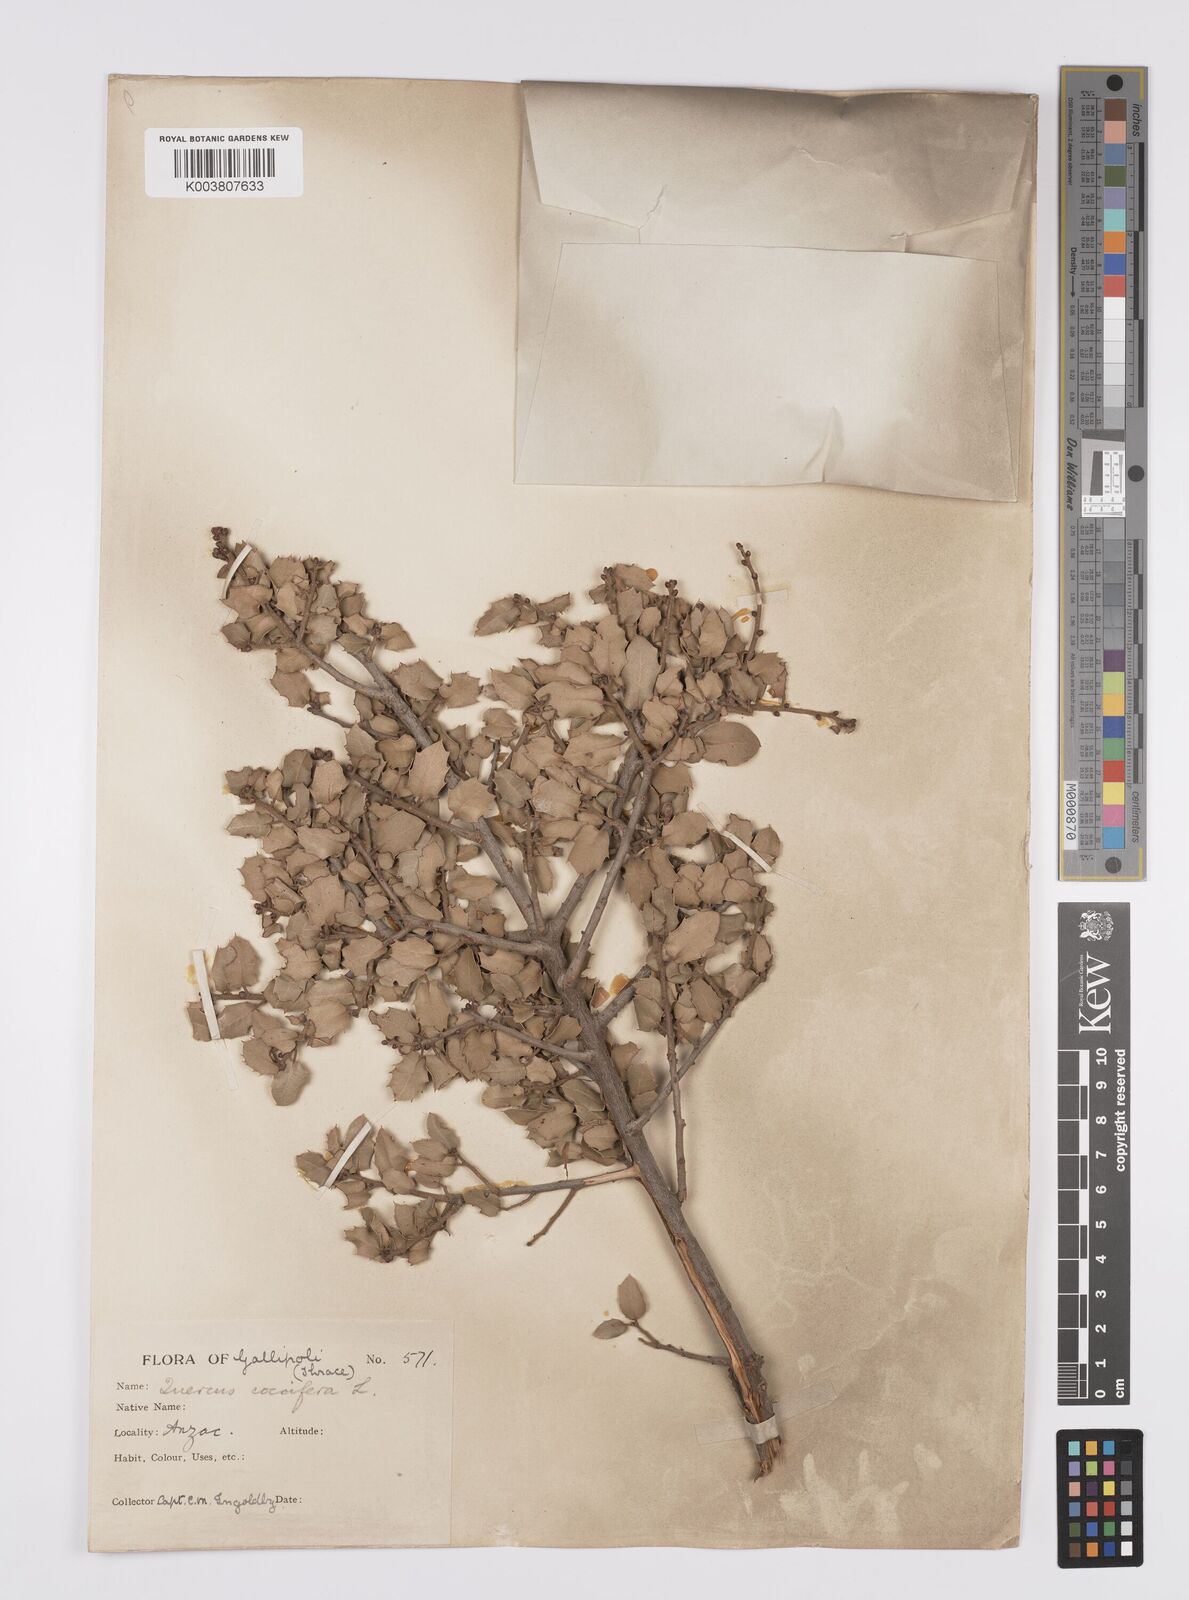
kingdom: Plantae
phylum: Tracheophyta
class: Magnoliopsida
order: Fagales
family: Fagaceae
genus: Quercus
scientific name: Quercus coccifera
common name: Kermes oak
